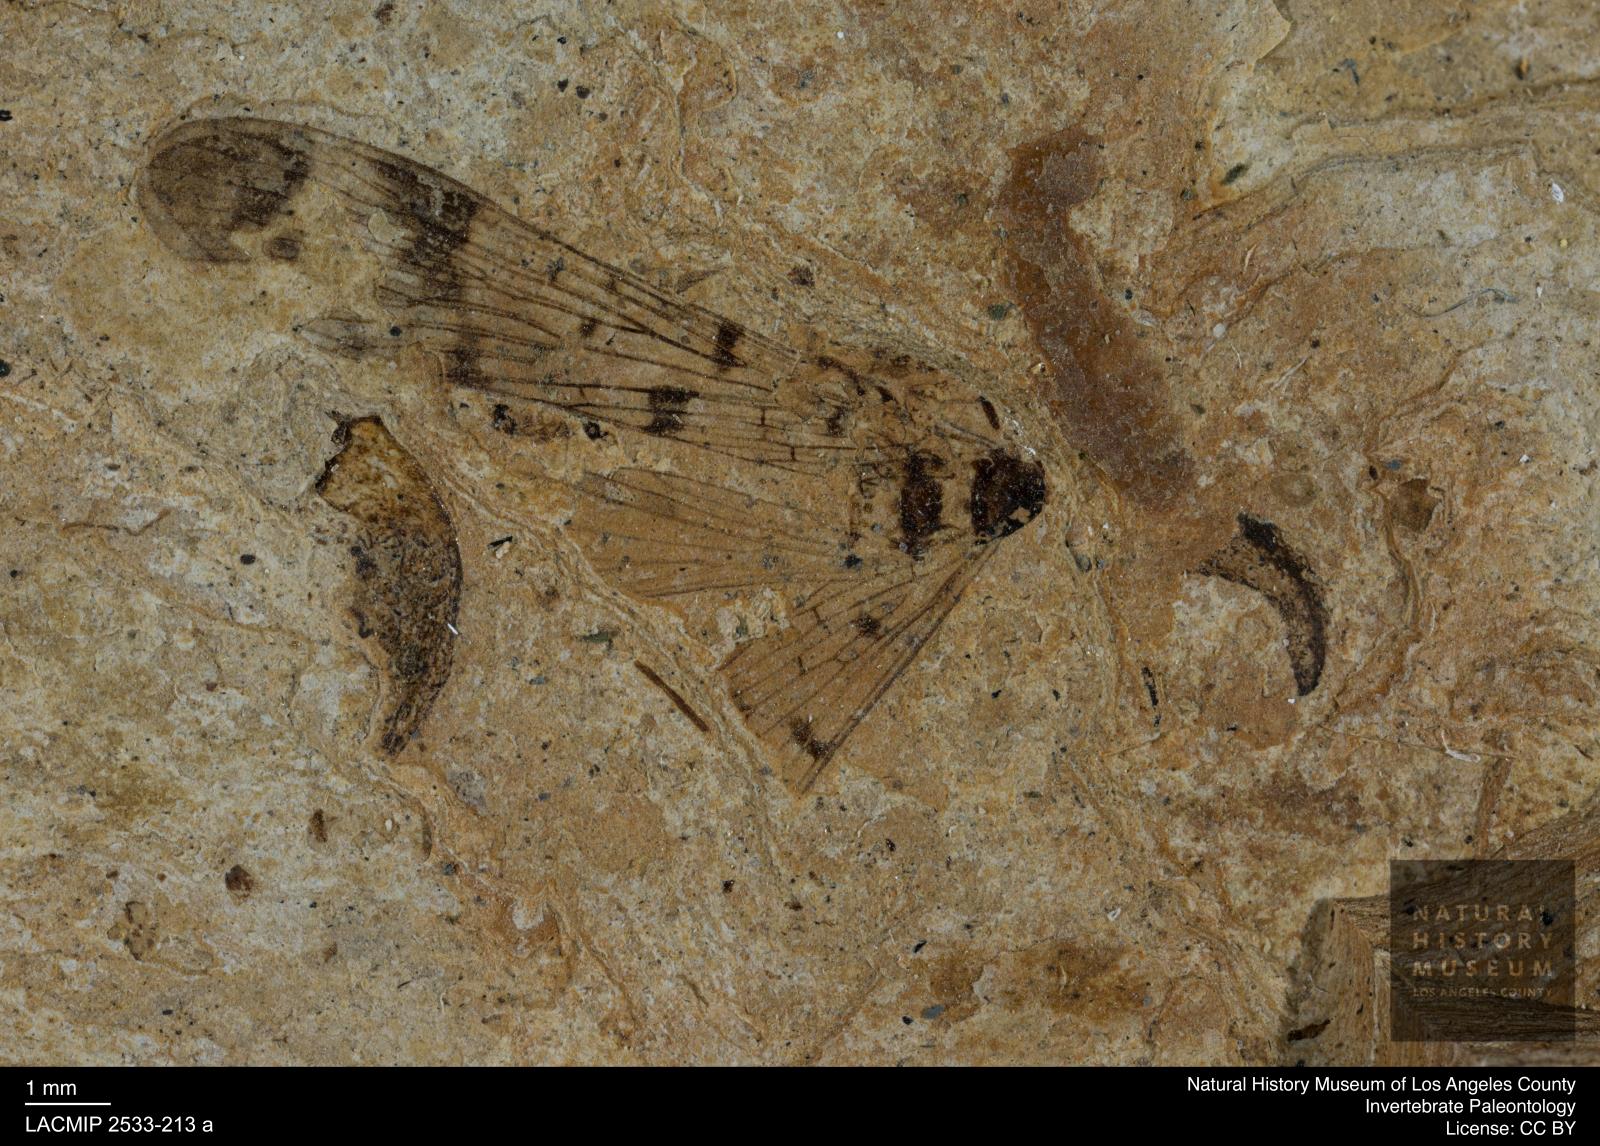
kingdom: Animalia
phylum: Arthropoda
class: Insecta
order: Mecoptera
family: Panorpidae
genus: Panorpa
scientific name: Panorpa rhenana
